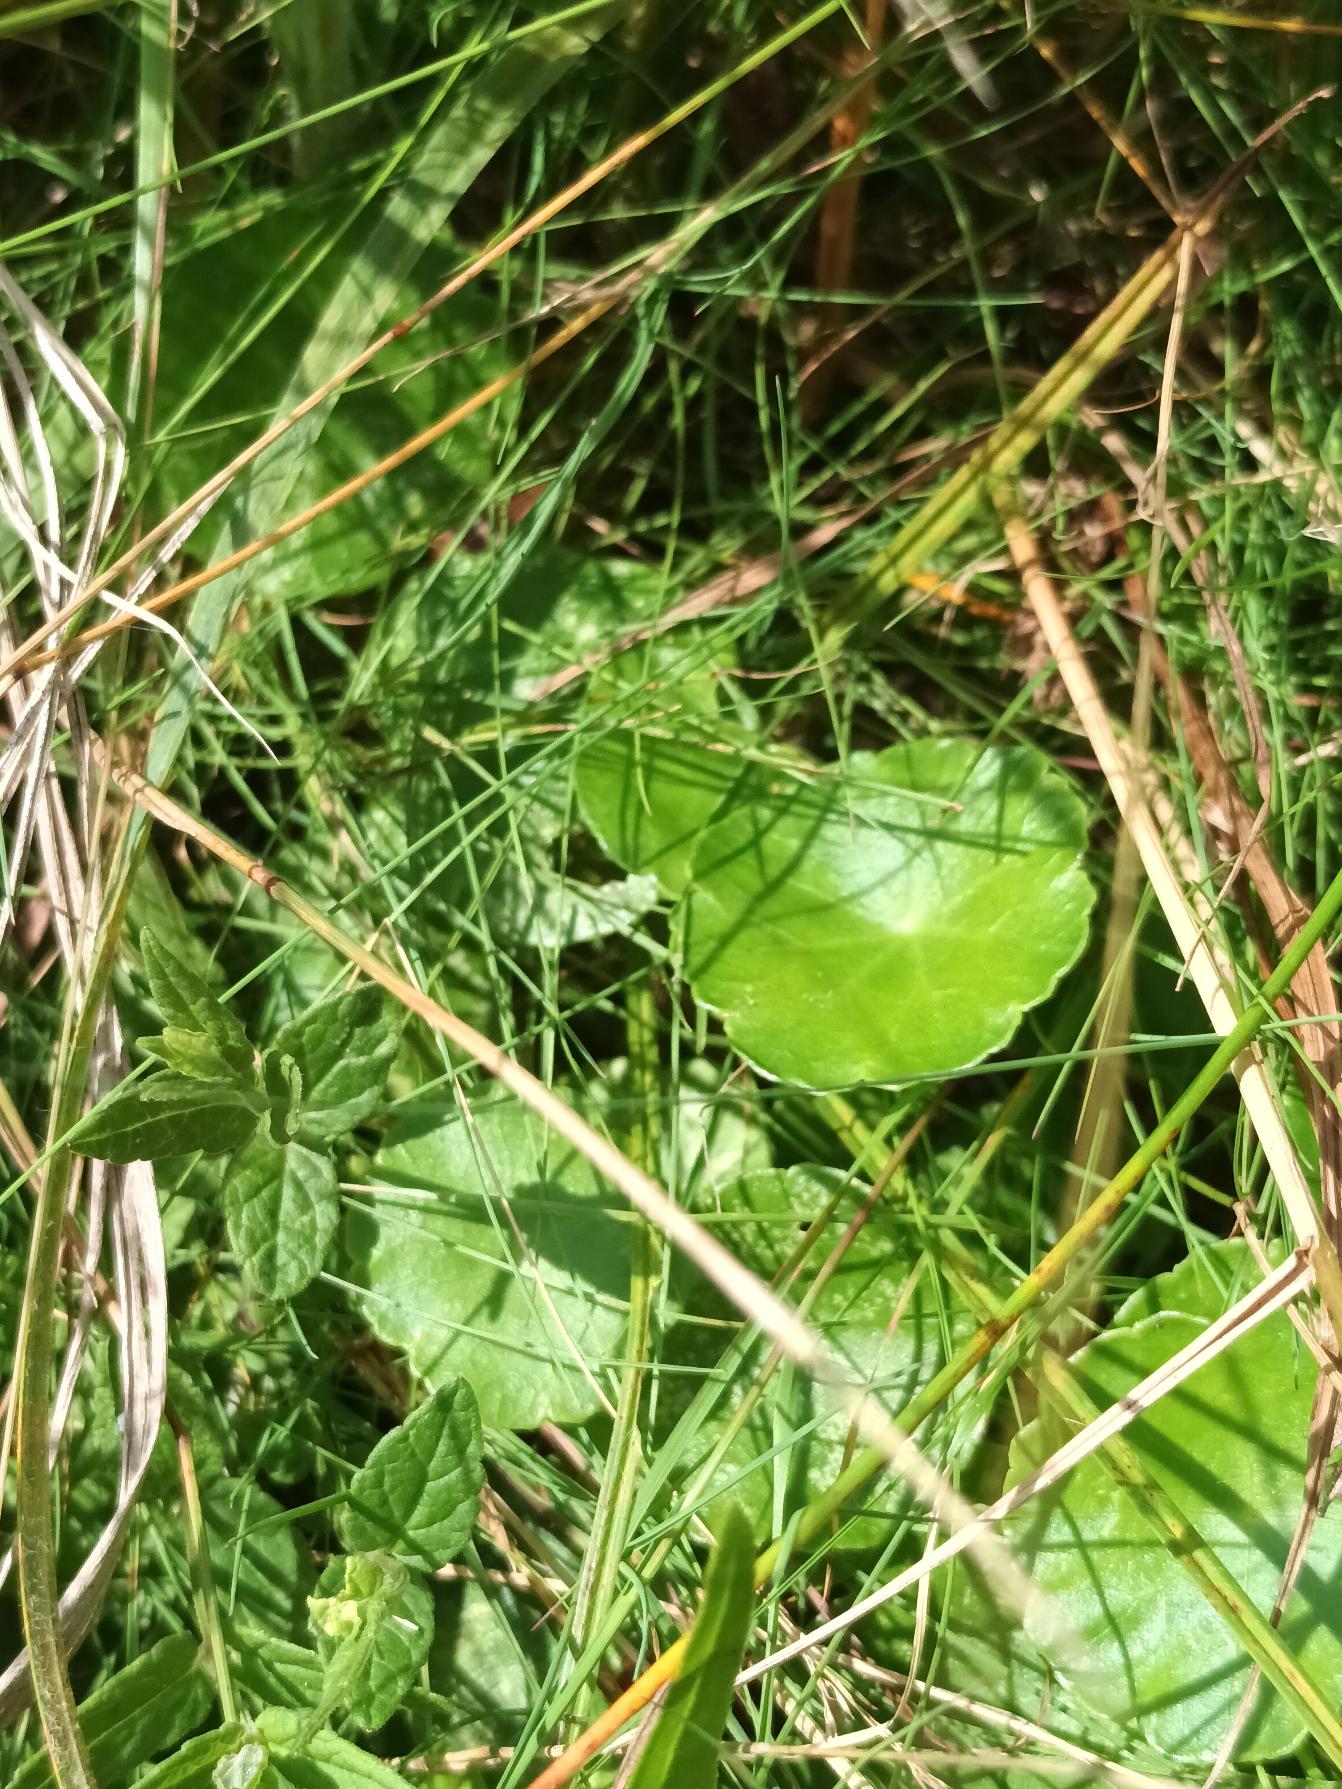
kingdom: Plantae
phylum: Tracheophyta
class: Magnoliopsida
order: Apiales
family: Araliaceae
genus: Hydrocotyle
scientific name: Hydrocotyle vulgaris
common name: Vandnavle
